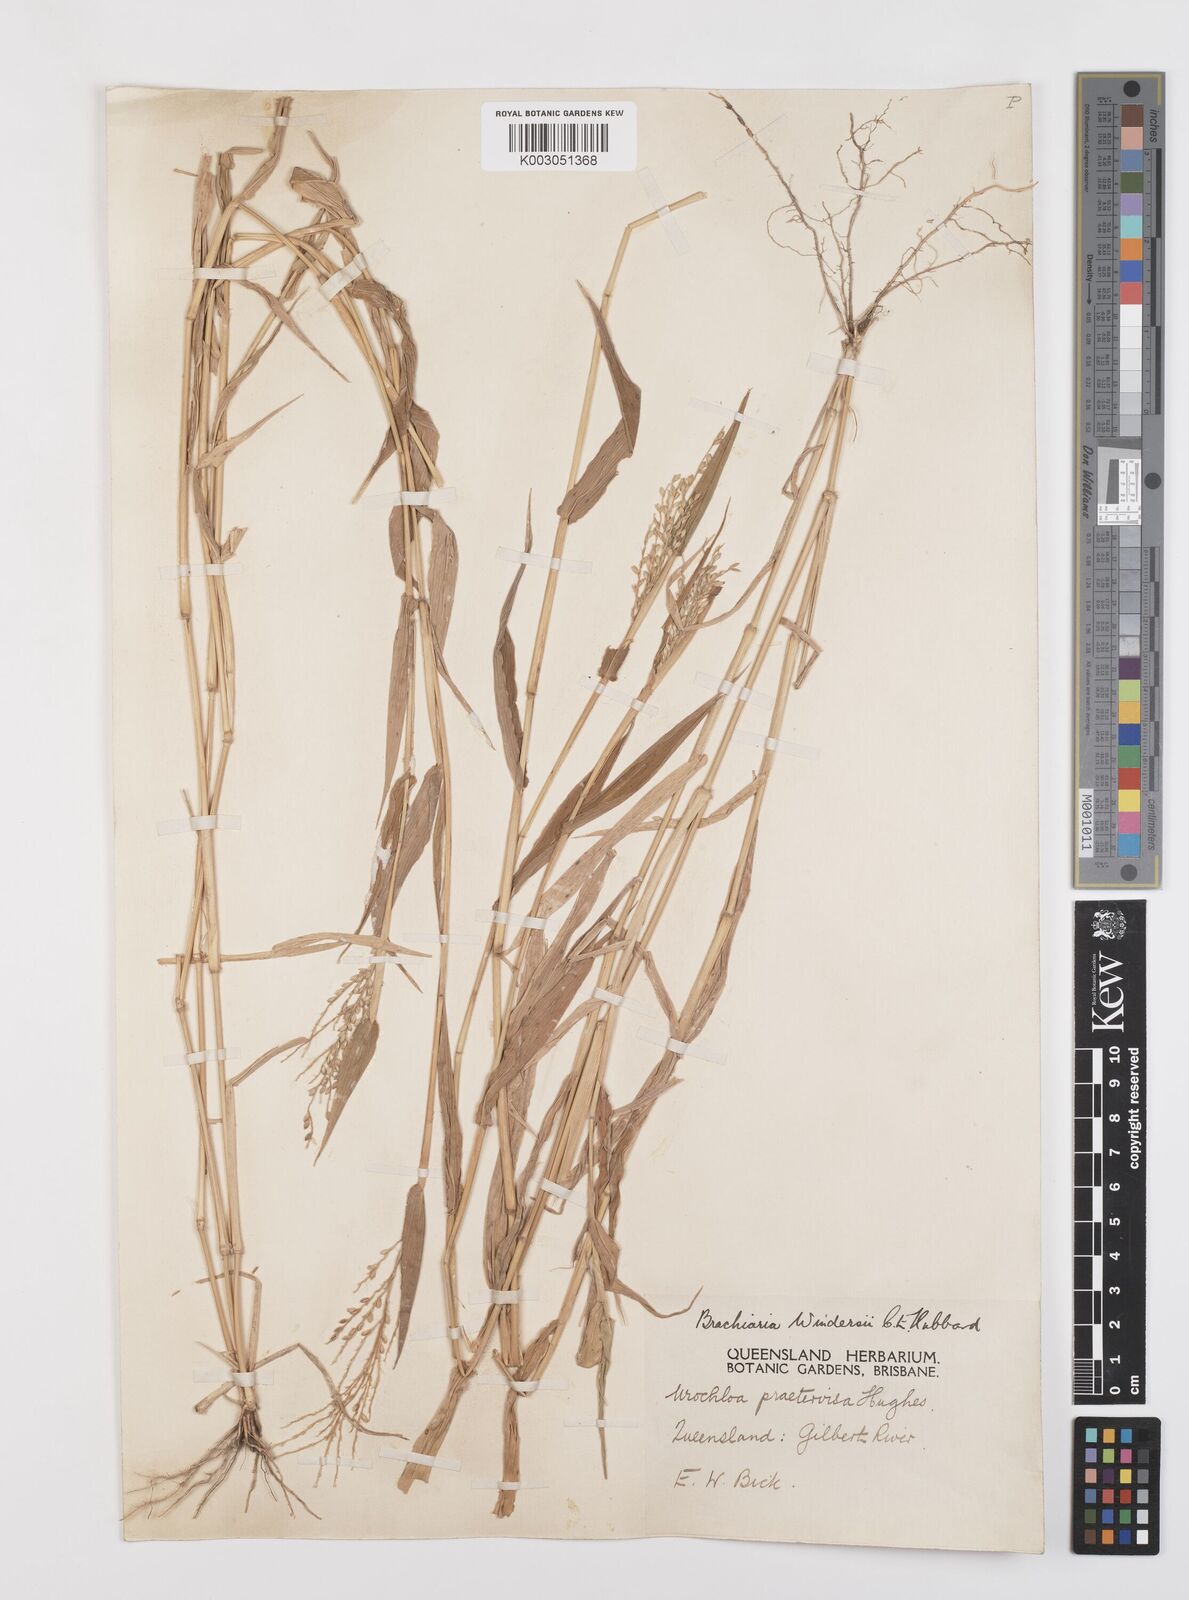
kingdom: Plantae
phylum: Tracheophyta
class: Liliopsida
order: Poales
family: Poaceae
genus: Urochloa
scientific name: Urochloa whiteana
